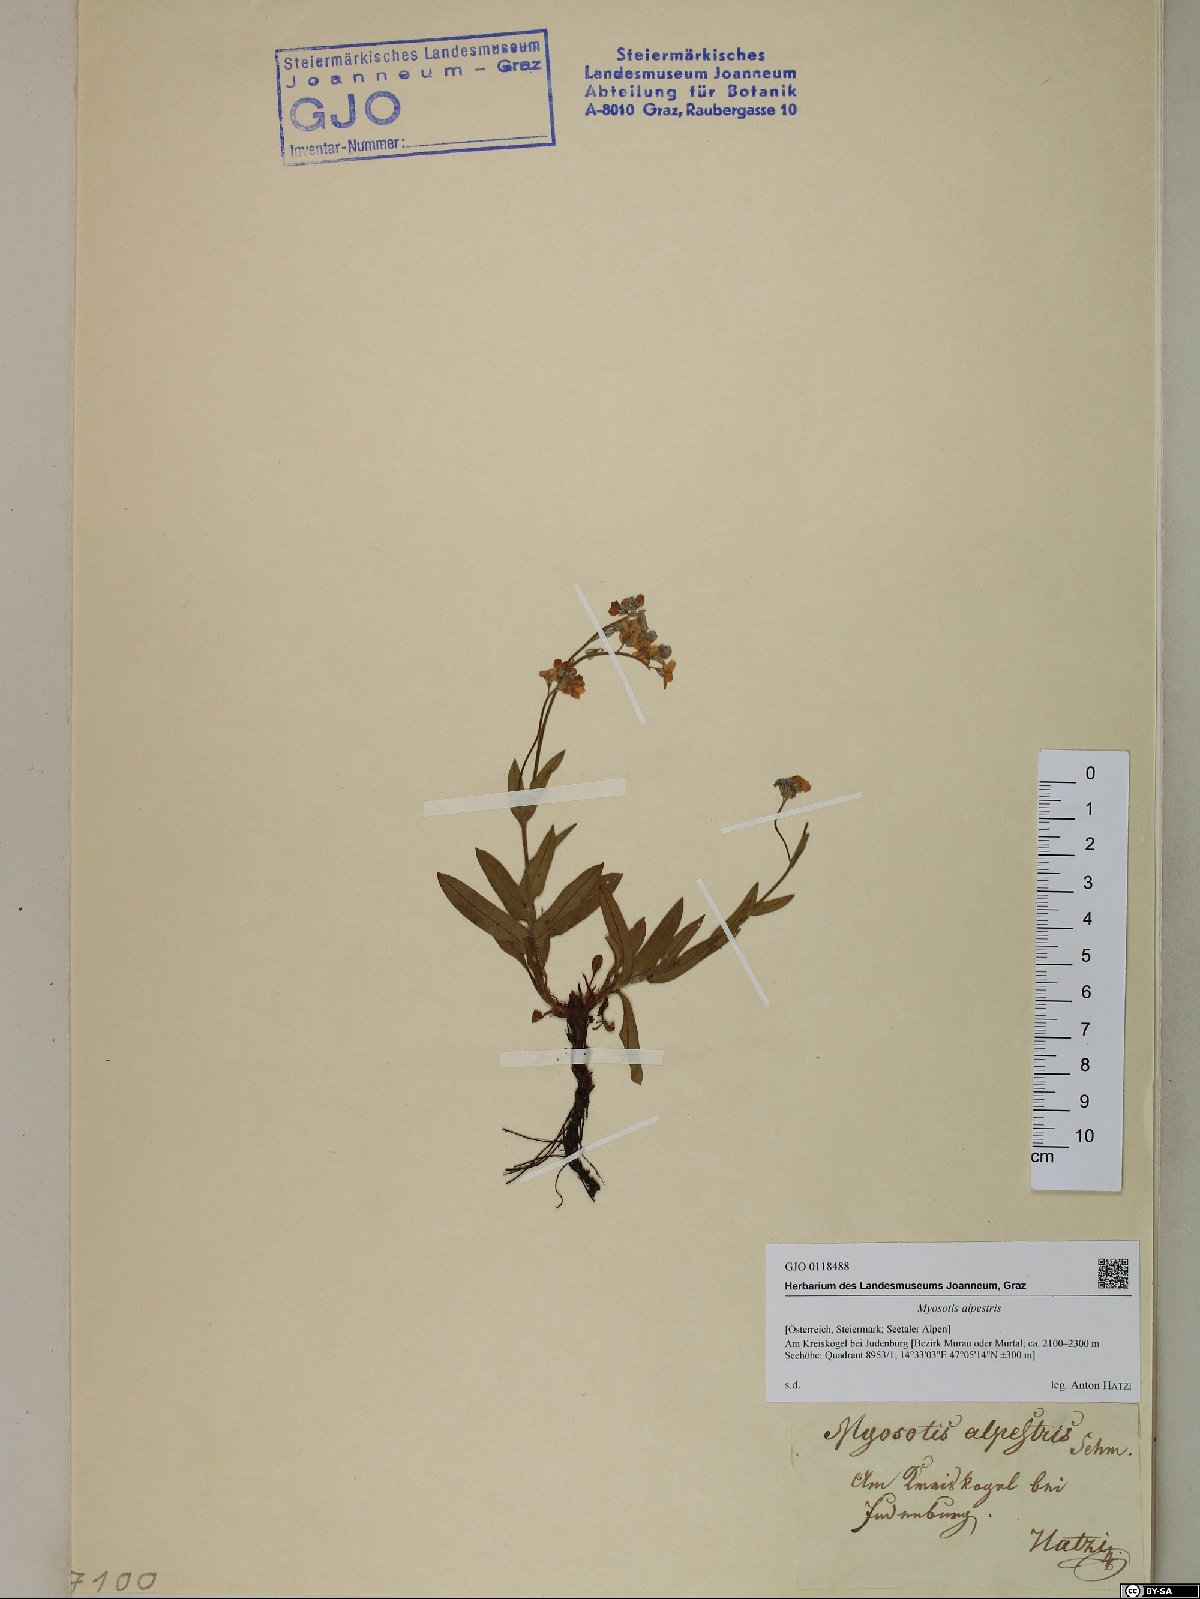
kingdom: Plantae
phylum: Tracheophyta
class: Magnoliopsida
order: Boraginales
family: Boraginaceae
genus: Myosotis
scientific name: Myosotis alpestris
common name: Alpine forget-me-not
